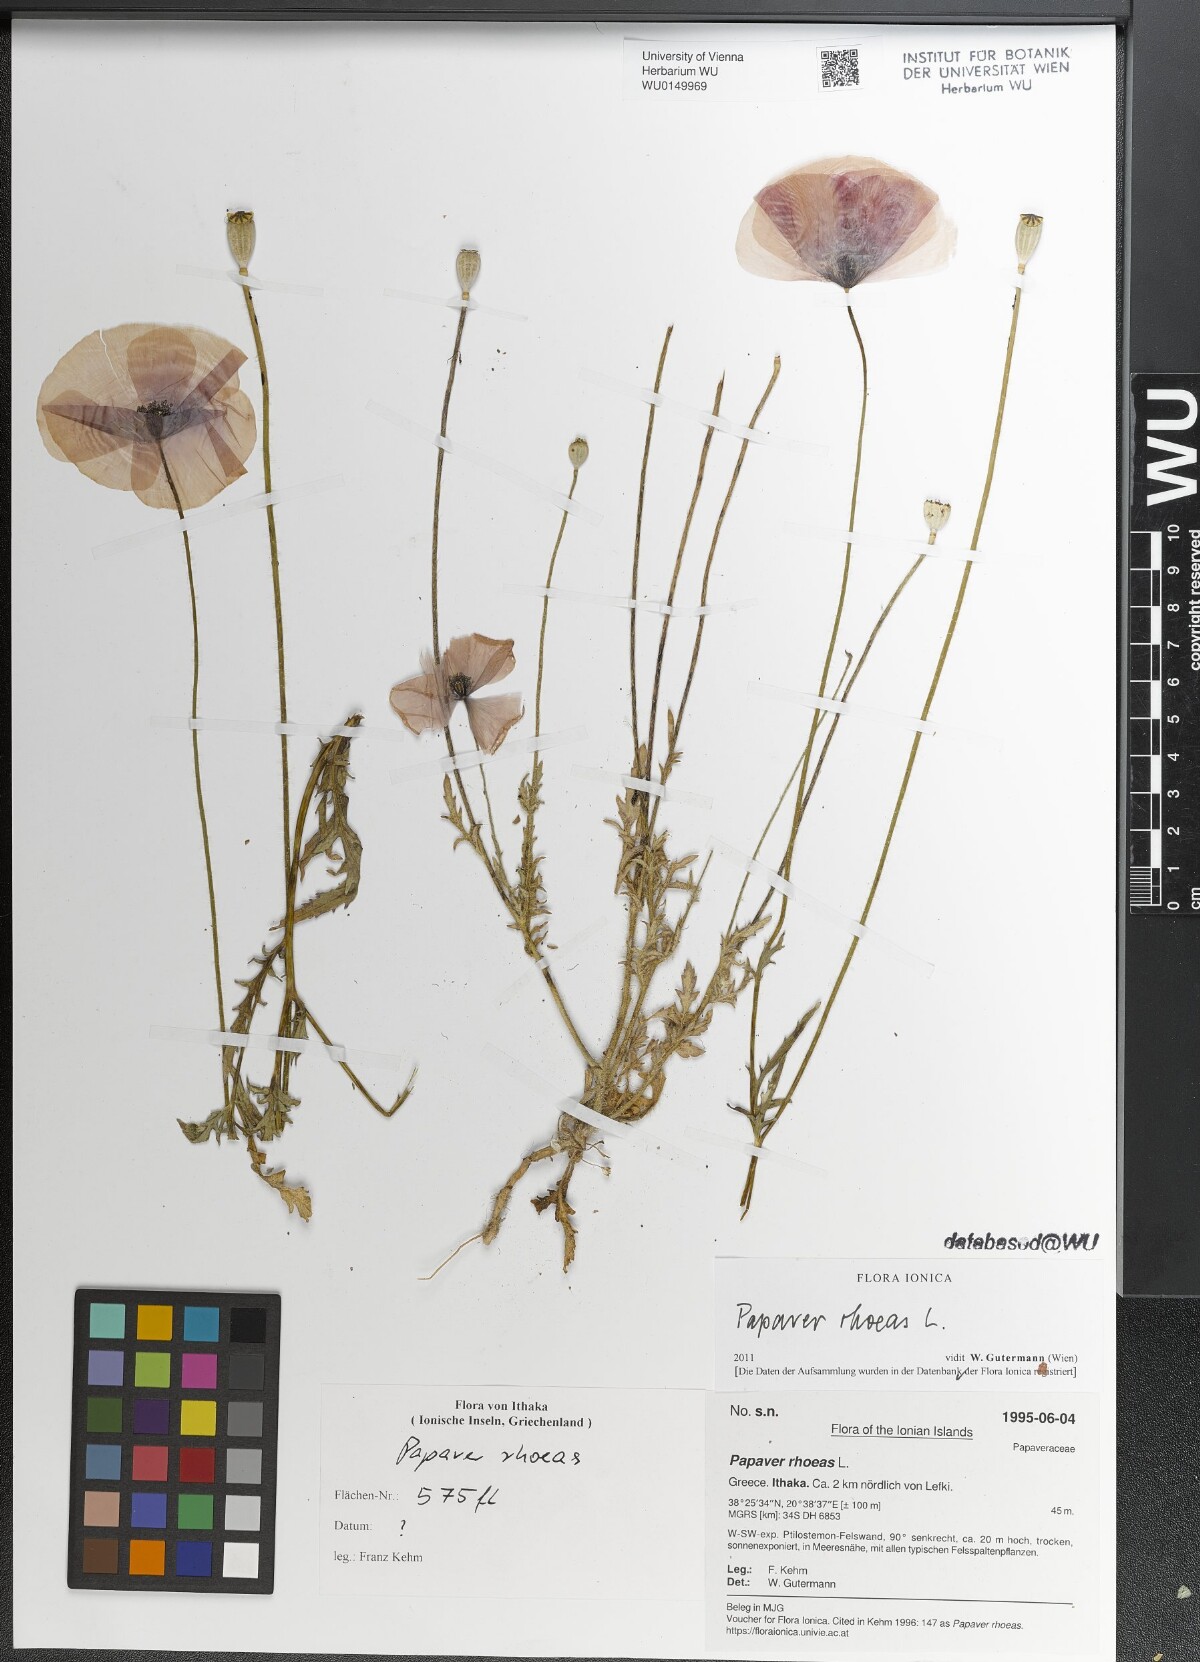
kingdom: Plantae
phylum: Tracheophyta
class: Magnoliopsida
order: Ranunculales
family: Papaveraceae
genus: Papaver
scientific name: Papaver rhoeas
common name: Corn poppy
